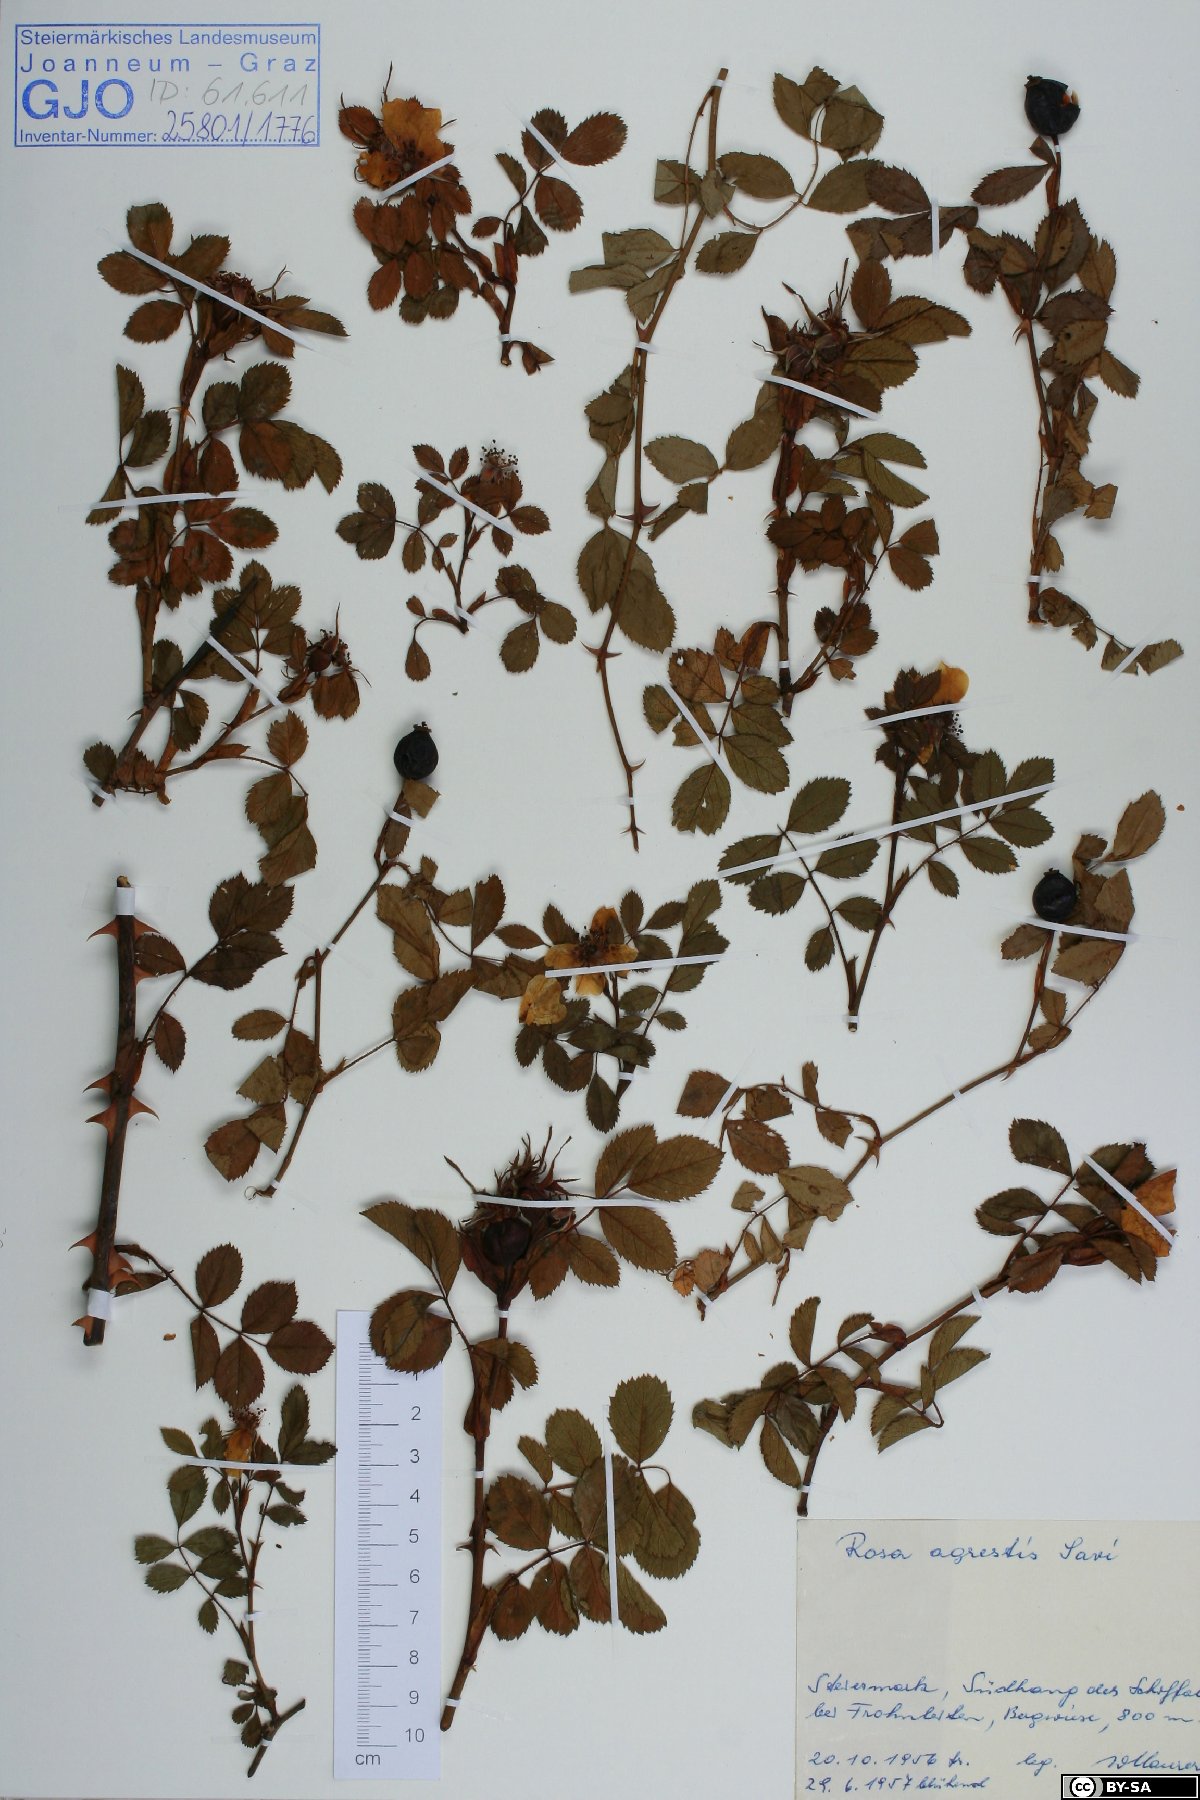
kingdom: Plantae
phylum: Tracheophyta
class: Magnoliopsida
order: Rosales
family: Rosaceae
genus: Rosa
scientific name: Rosa agrestis
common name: Fieldbriar
